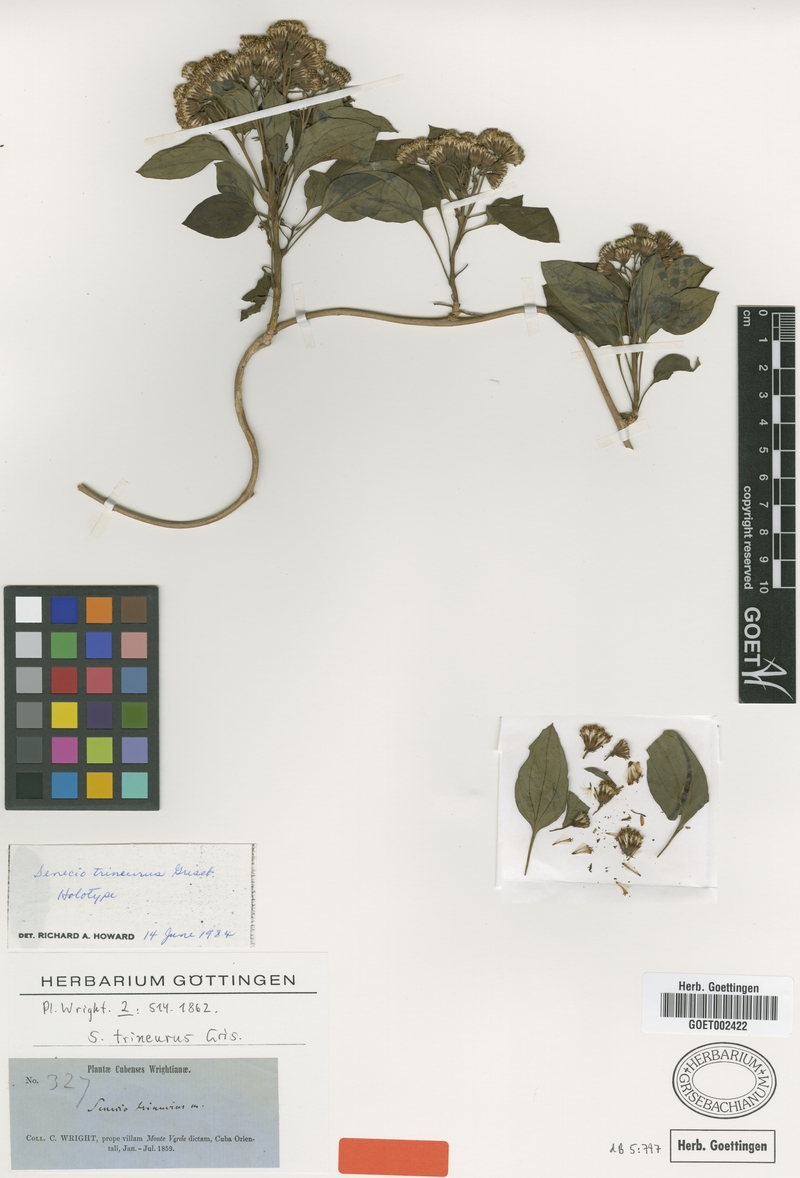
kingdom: Plantae
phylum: Tracheophyta
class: Magnoliopsida
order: Asterales
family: Asteraceae
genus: Leonis
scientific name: Leonis trineura
